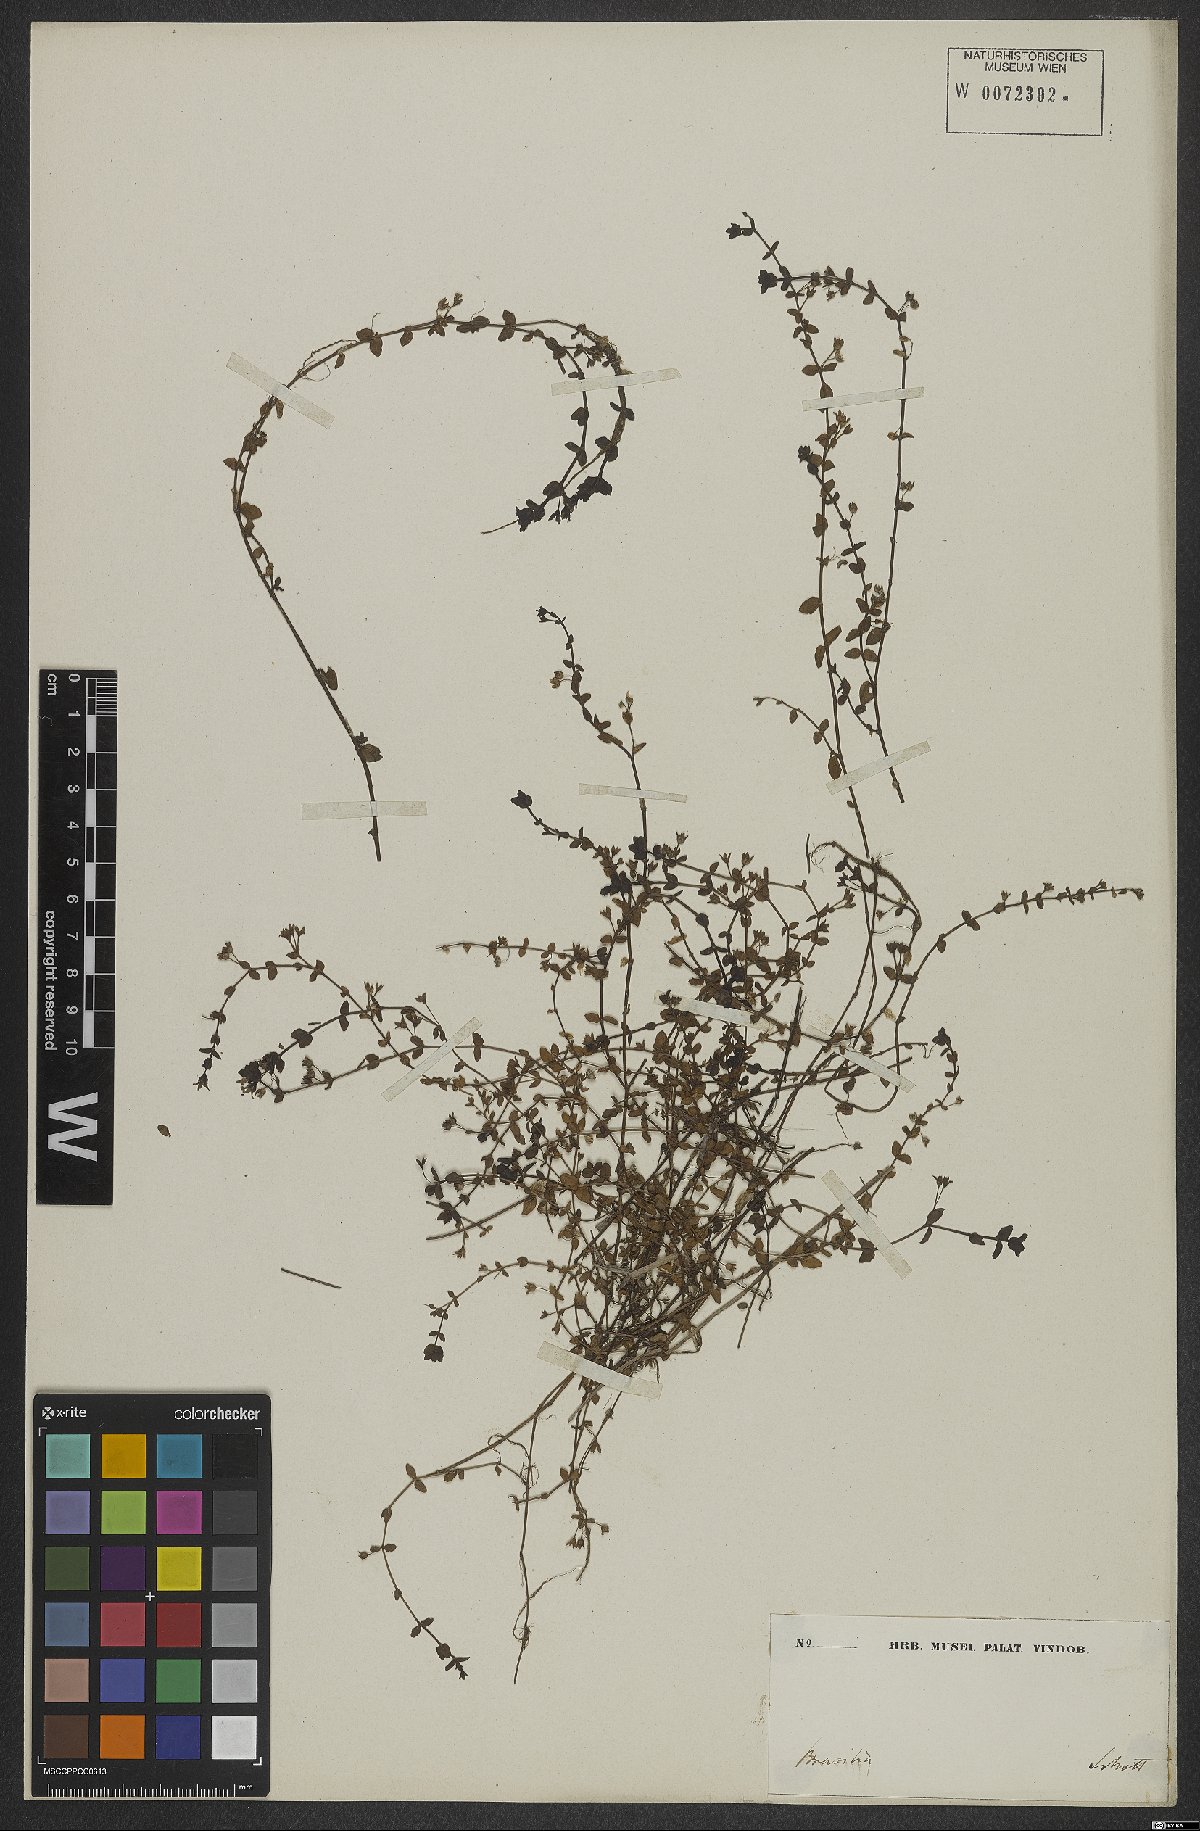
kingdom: Plantae
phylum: Tracheophyta
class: Magnoliopsida
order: Gentianales
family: Rubiaceae
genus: Hedyotis
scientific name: Hedyotis
